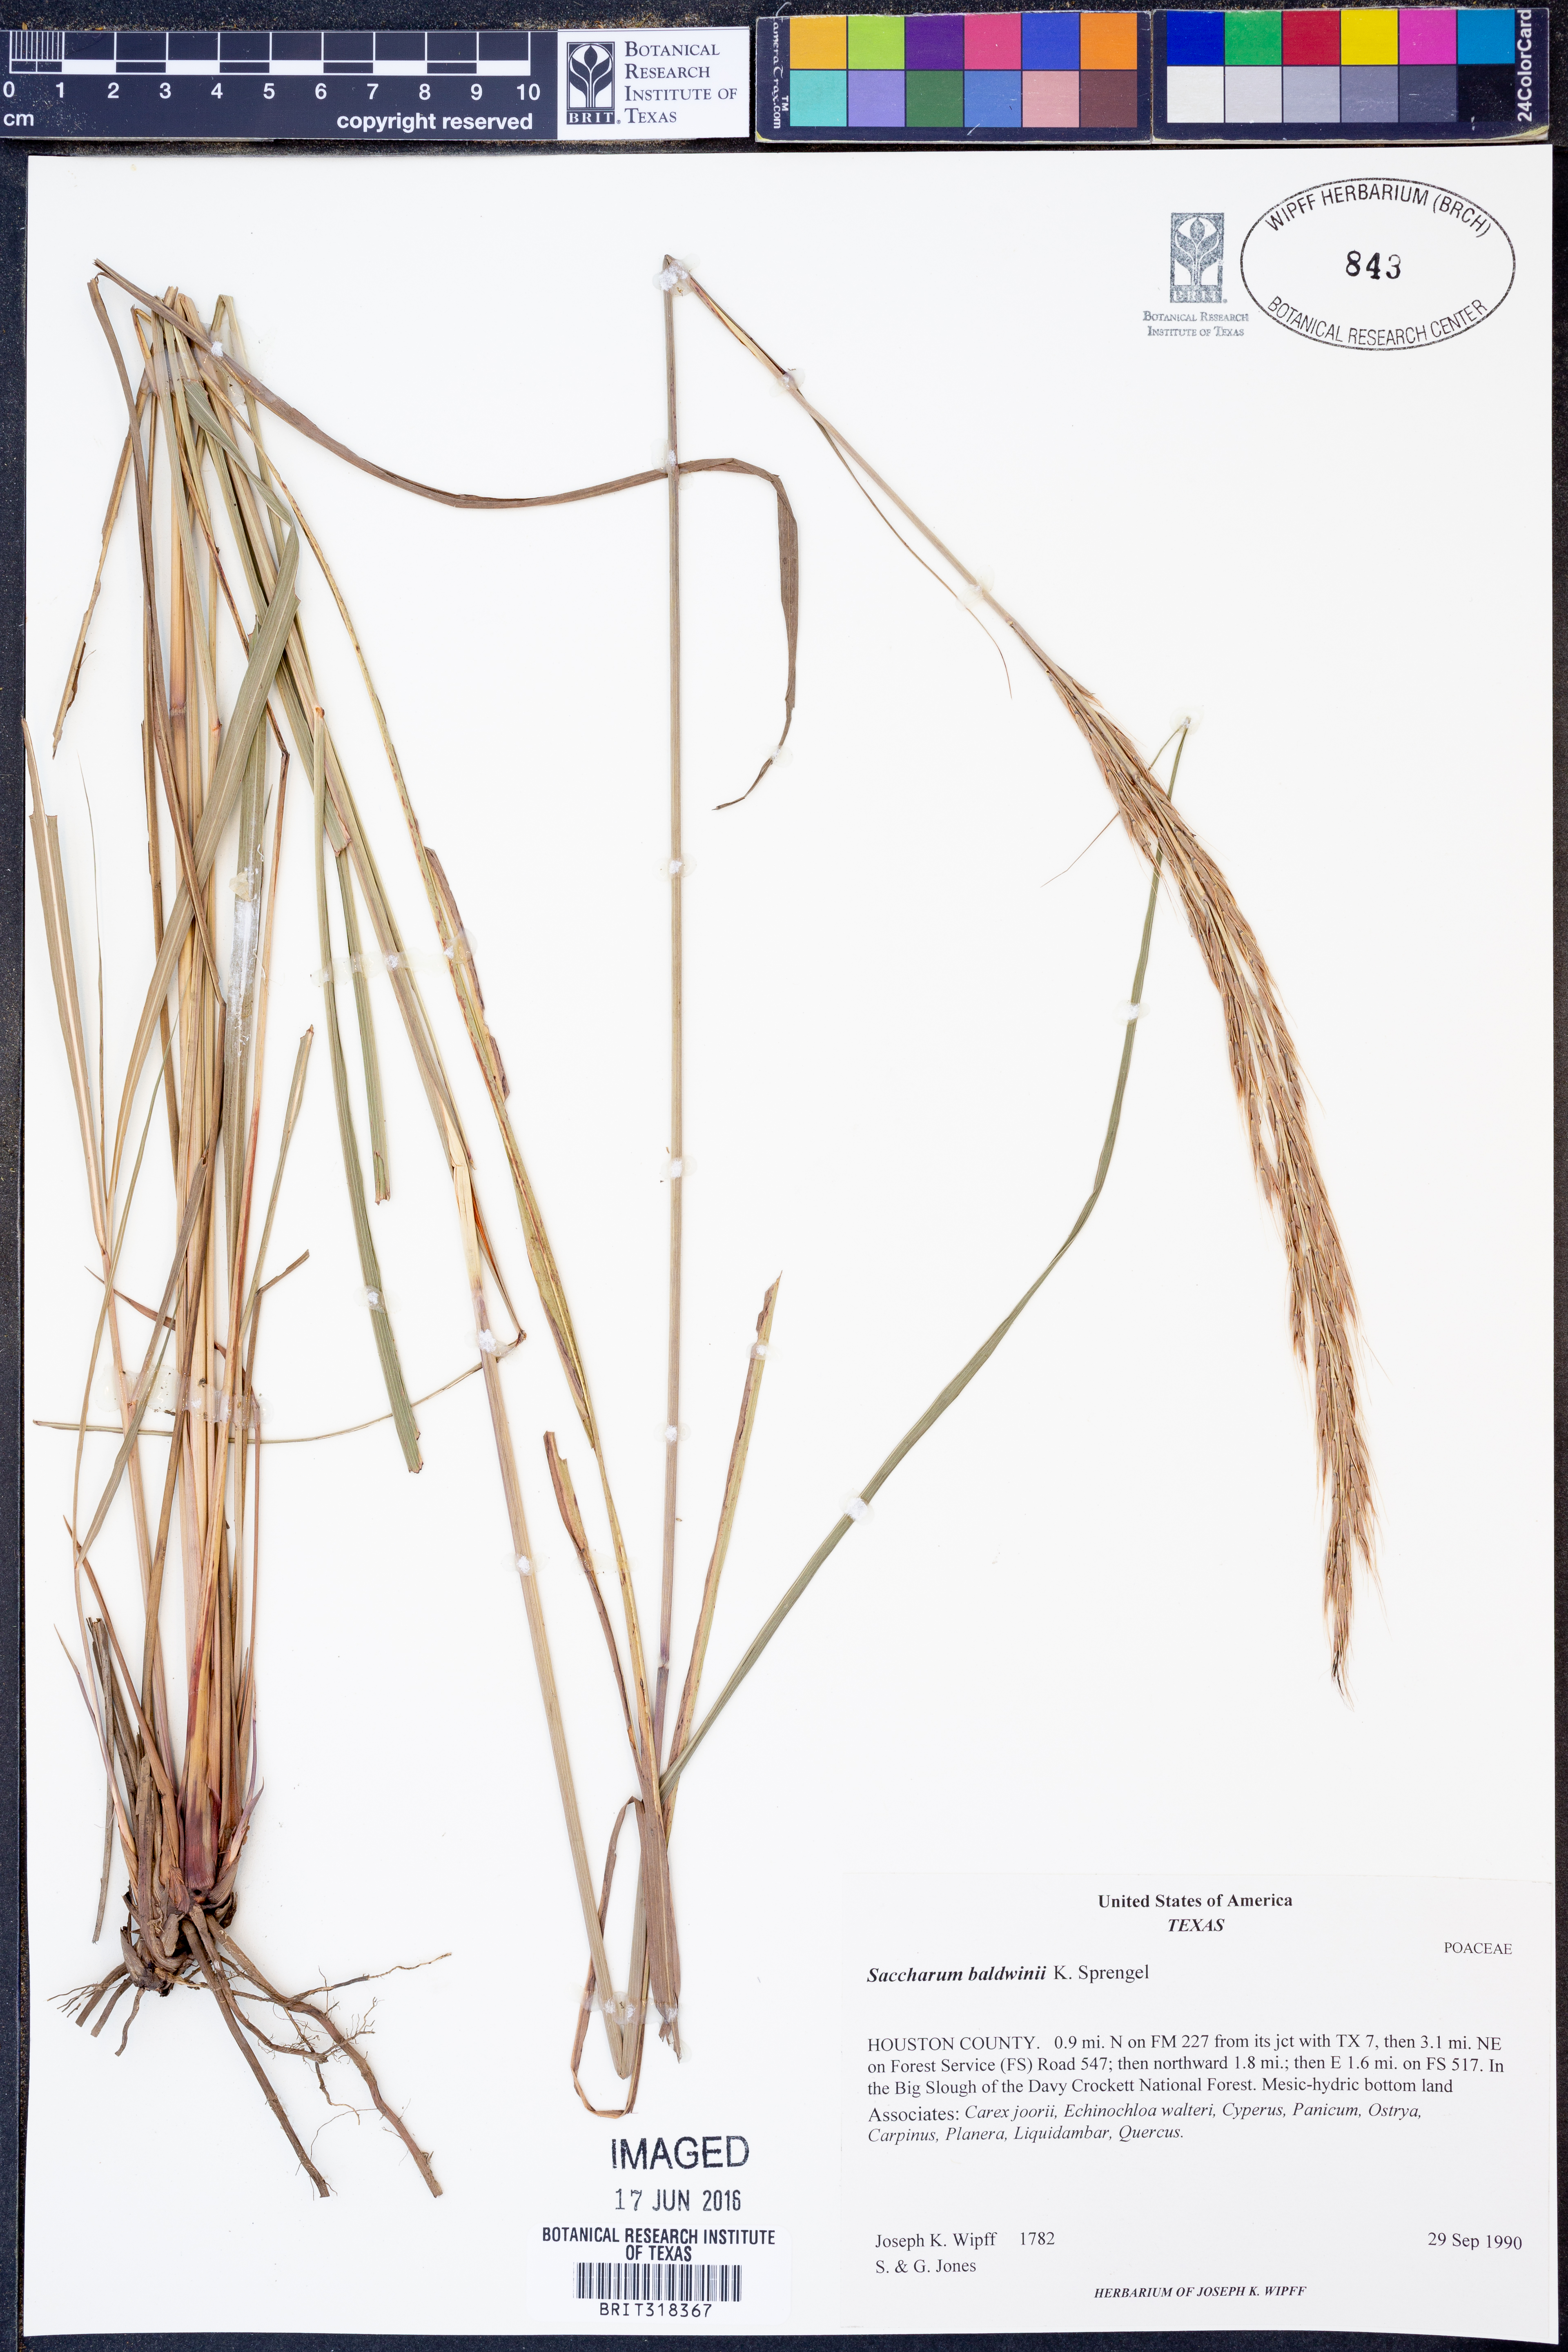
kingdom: Plantae
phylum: Tracheophyta
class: Liliopsida
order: Poales
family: Poaceae
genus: Erianthus
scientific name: Erianthus strictus
